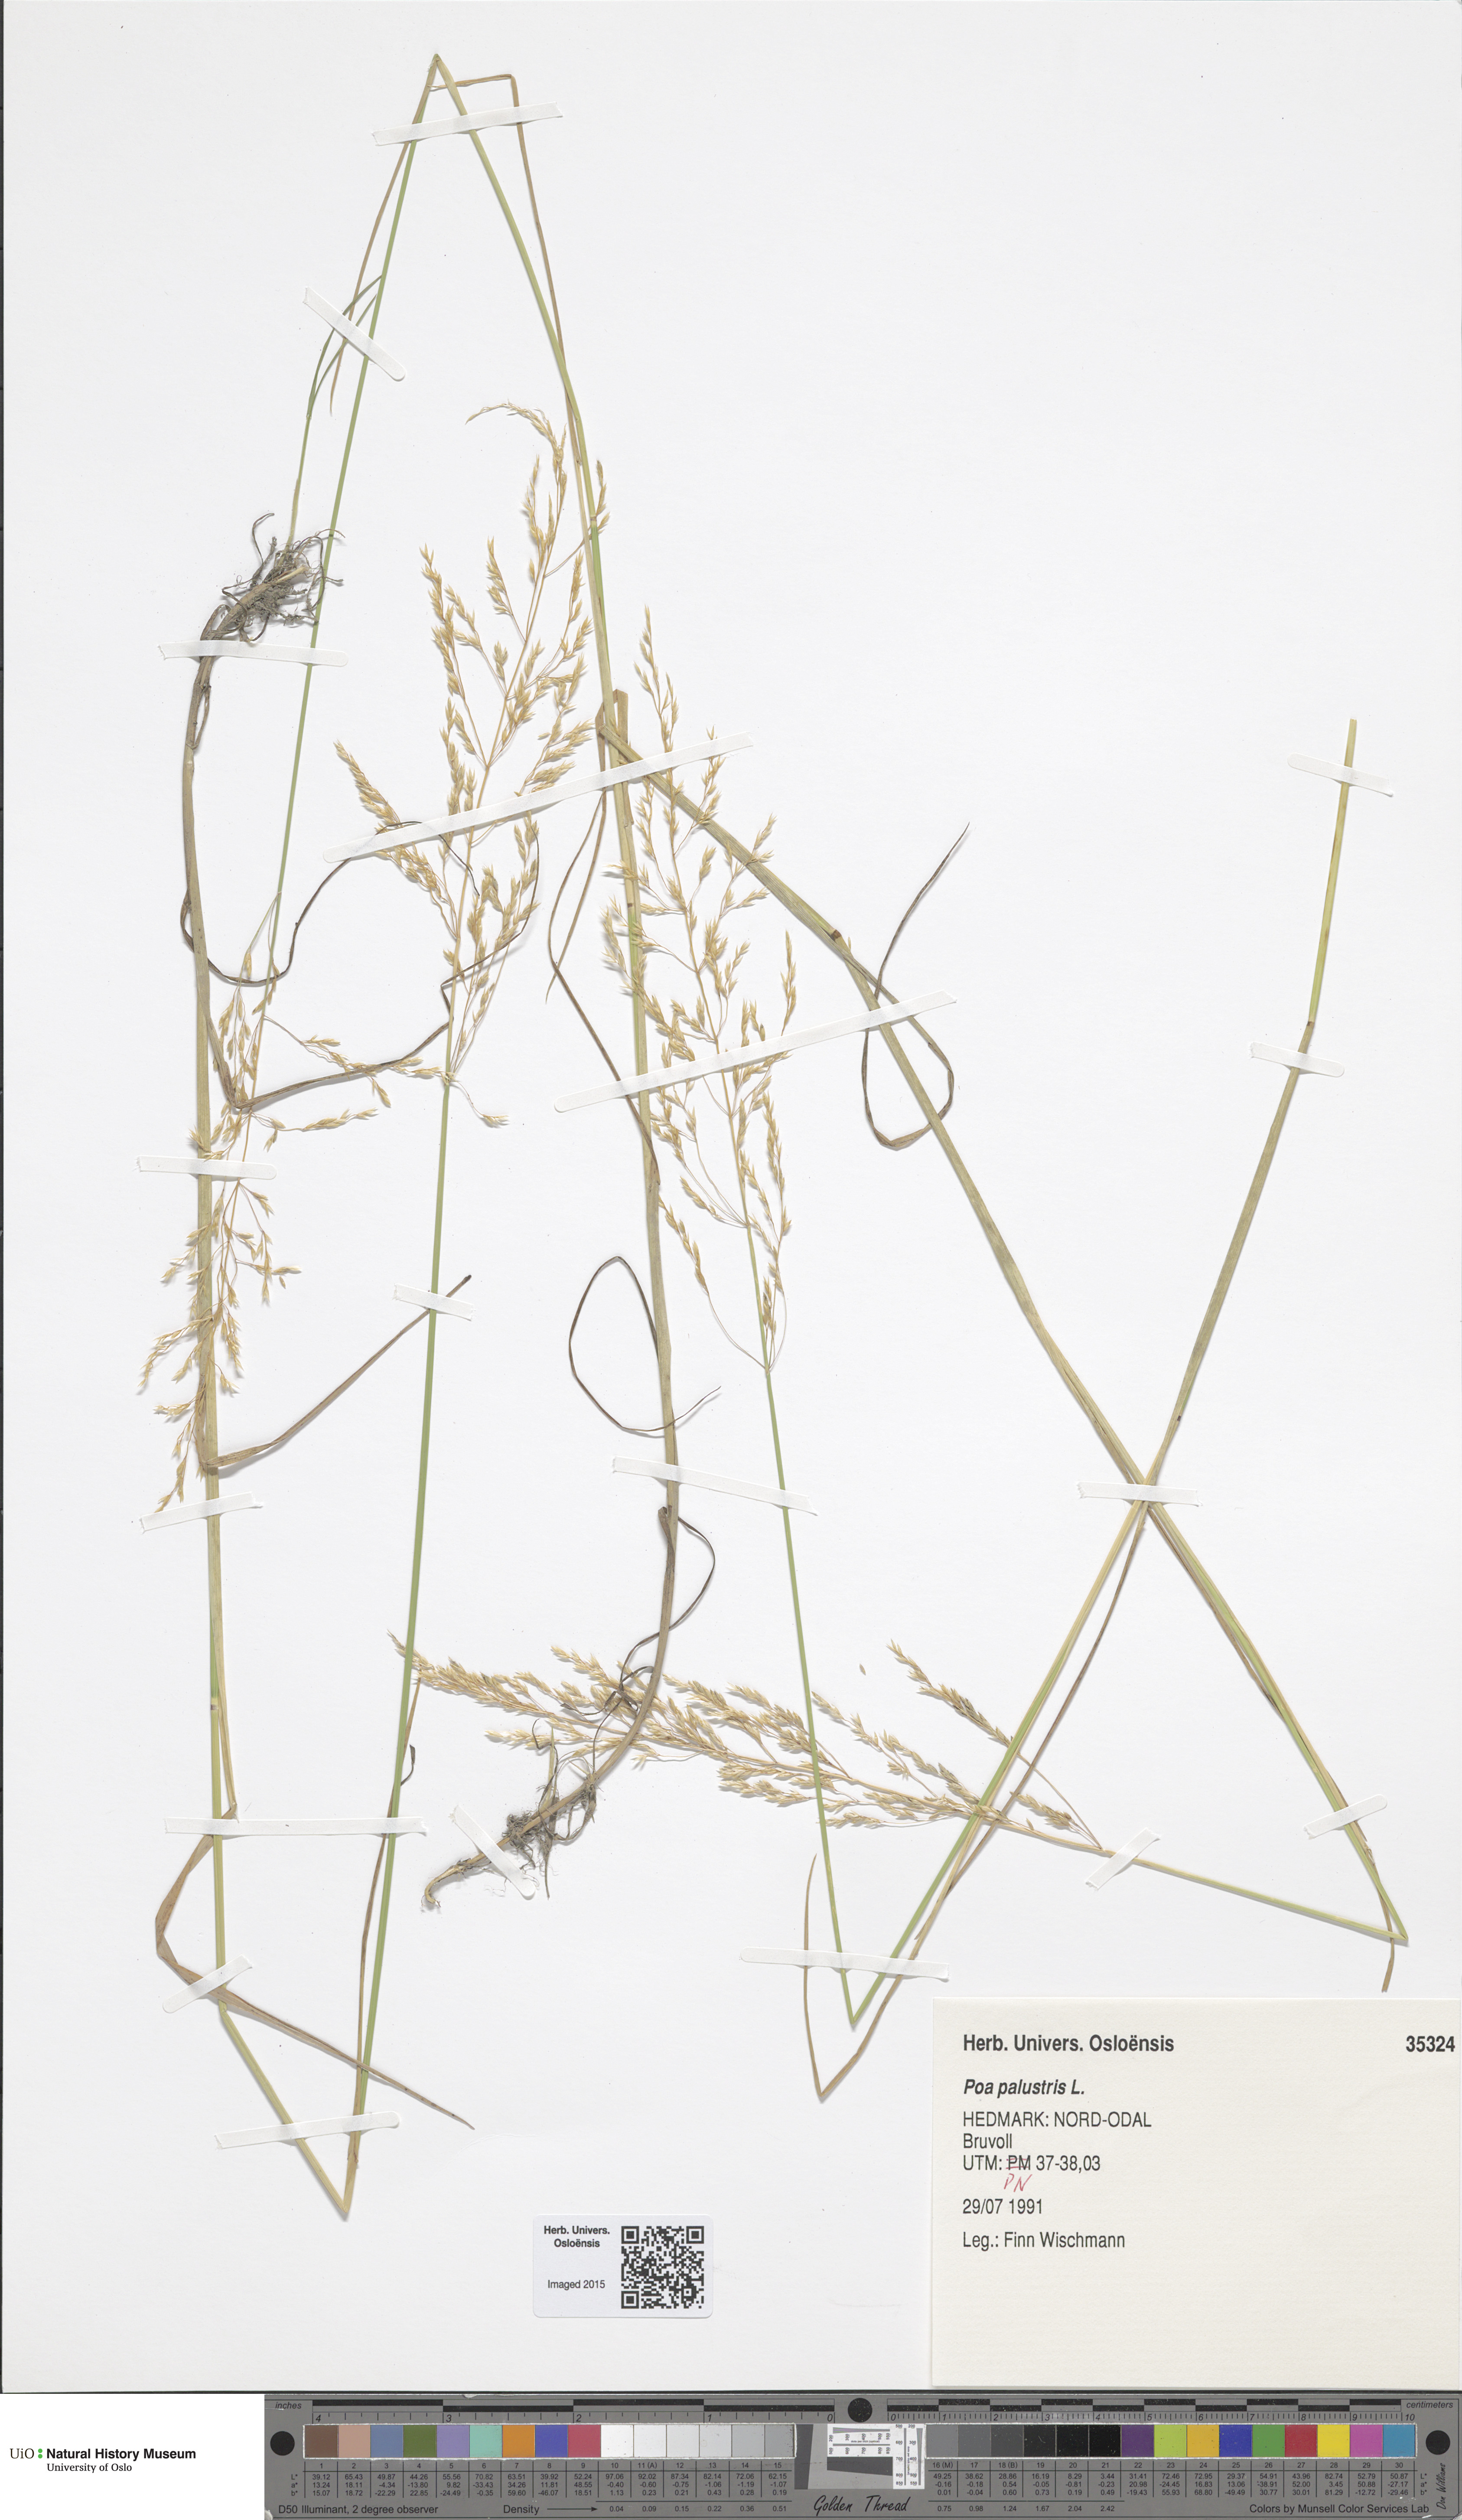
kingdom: Plantae
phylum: Tracheophyta
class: Liliopsida
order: Poales
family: Poaceae
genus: Poa
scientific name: Poa palustris
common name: Swamp meadow-grass
